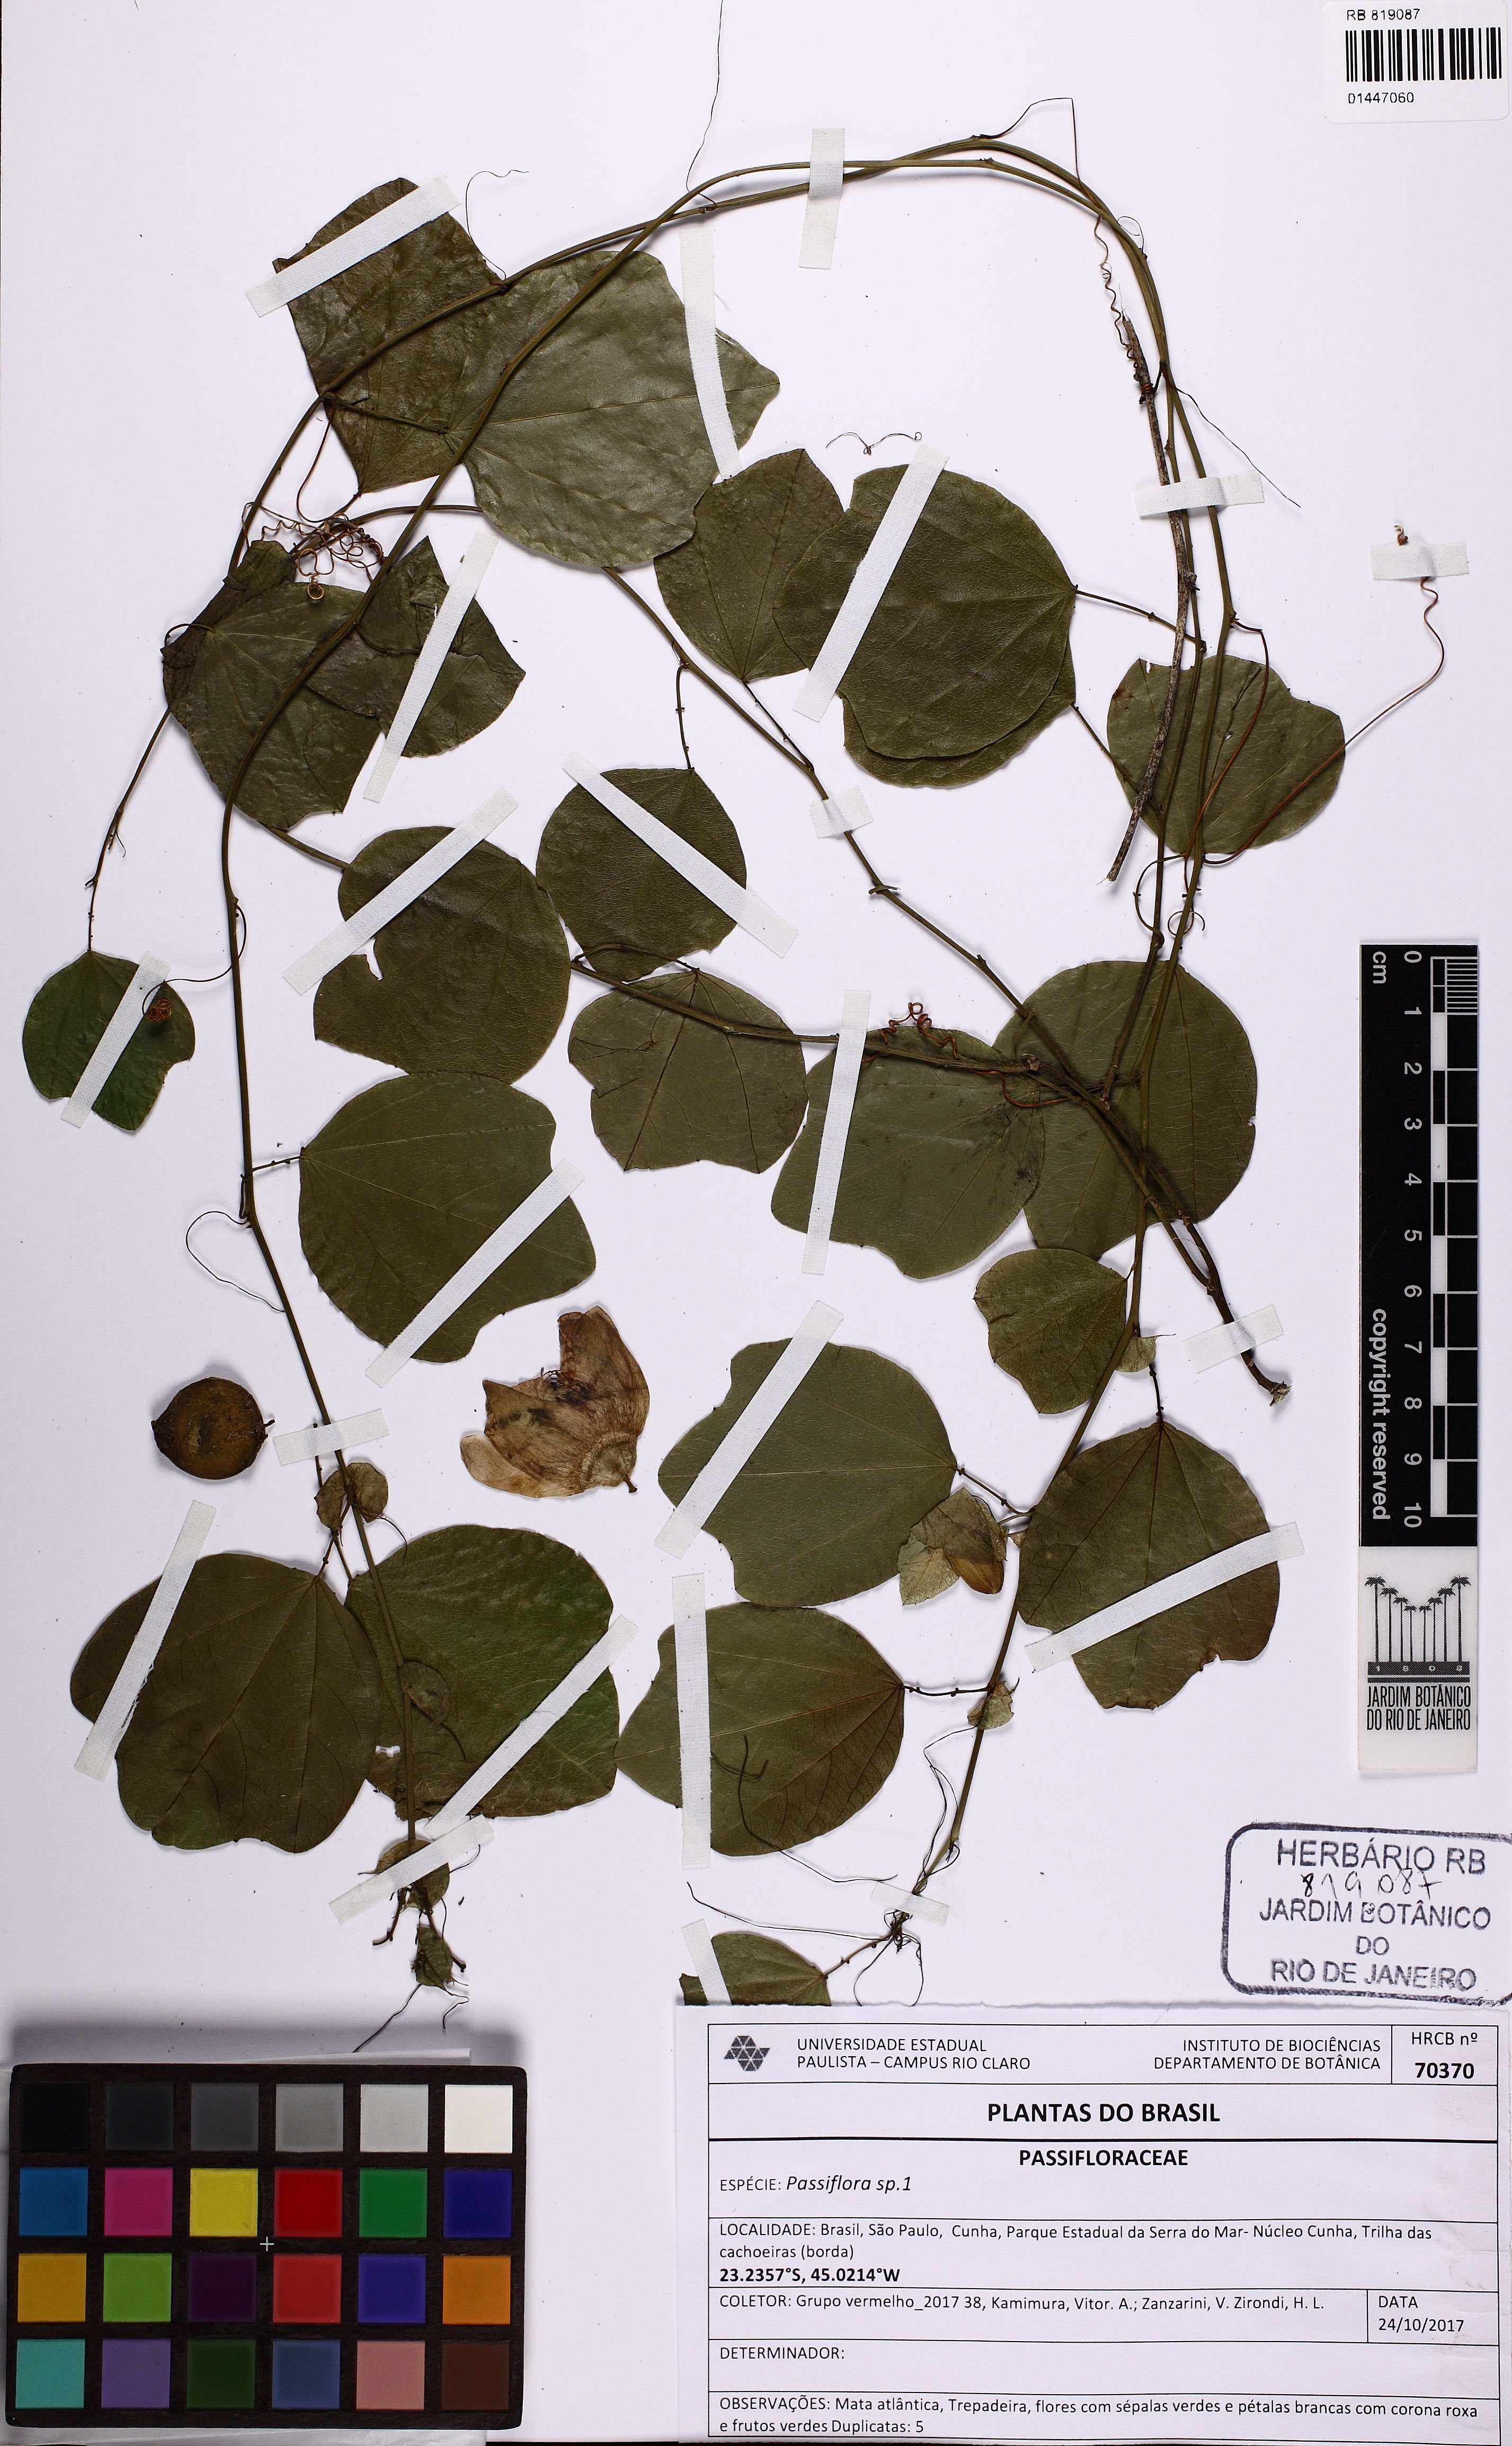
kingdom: Plantae
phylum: Tracheophyta
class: Magnoliopsida
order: Malpighiales
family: Passifloraceae
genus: Passiflora
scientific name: Passiflora
